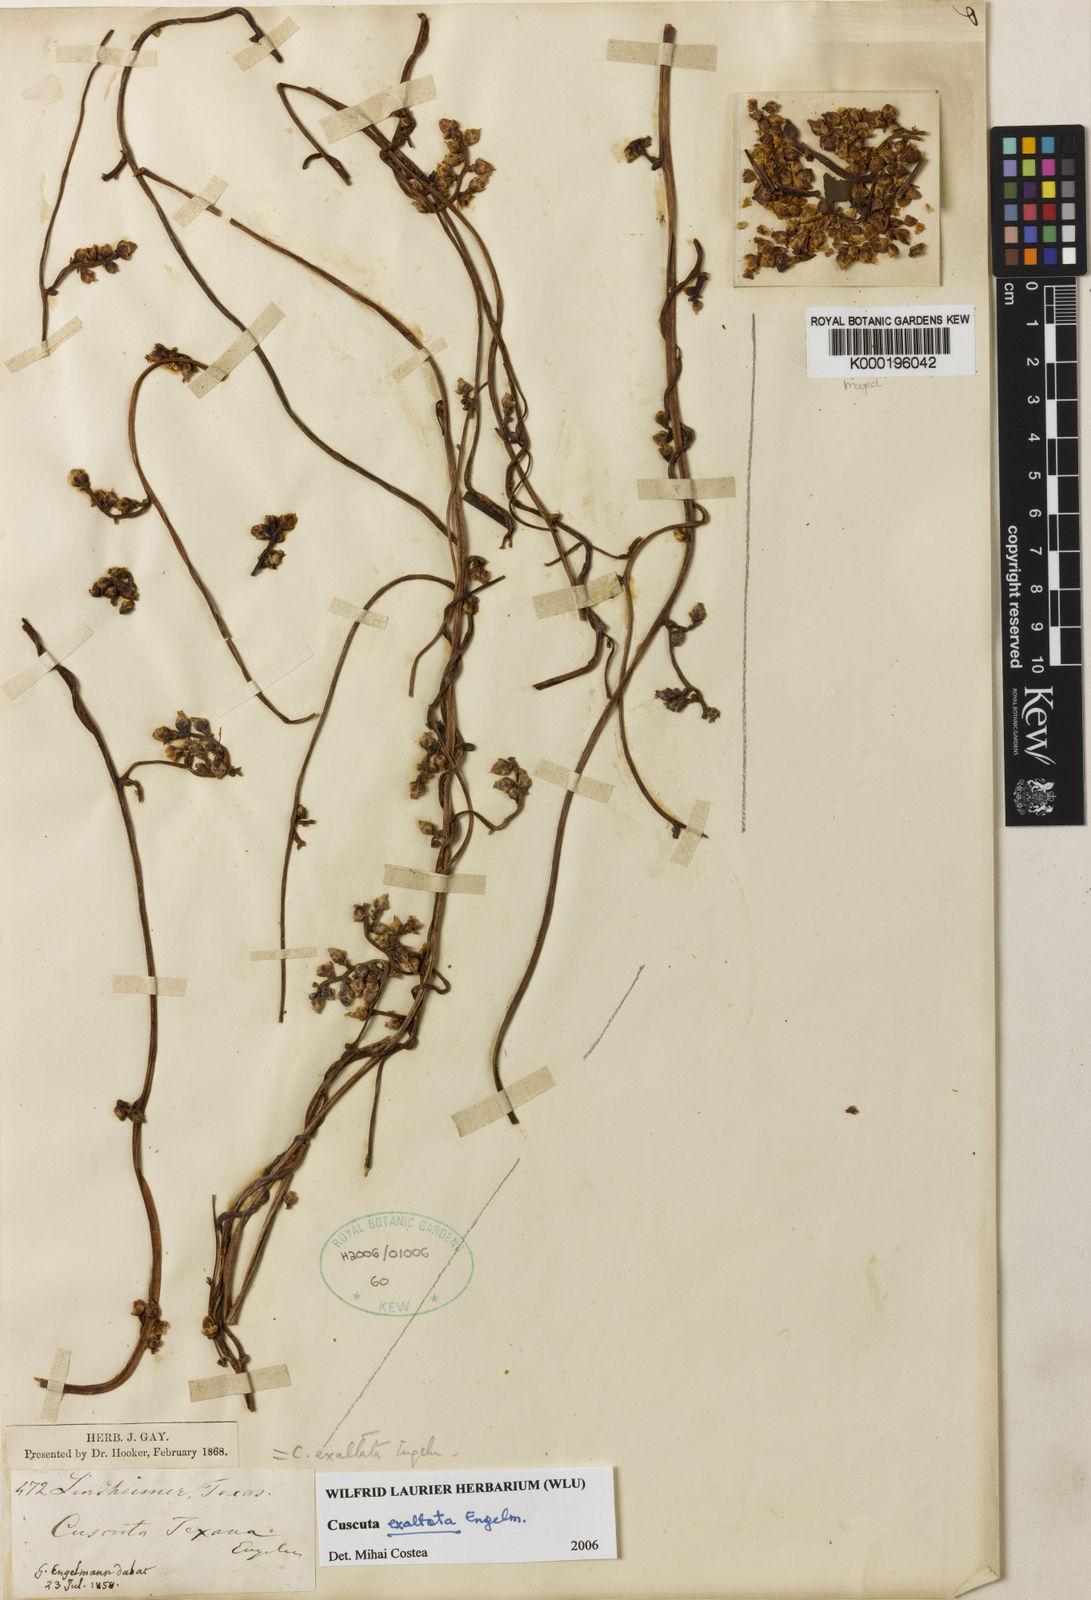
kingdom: Plantae
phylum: Tracheophyta
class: Magnoliopsida
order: Solanales
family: Convolvulaceae
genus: Cuscuta
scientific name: Cuscuta exaltata
